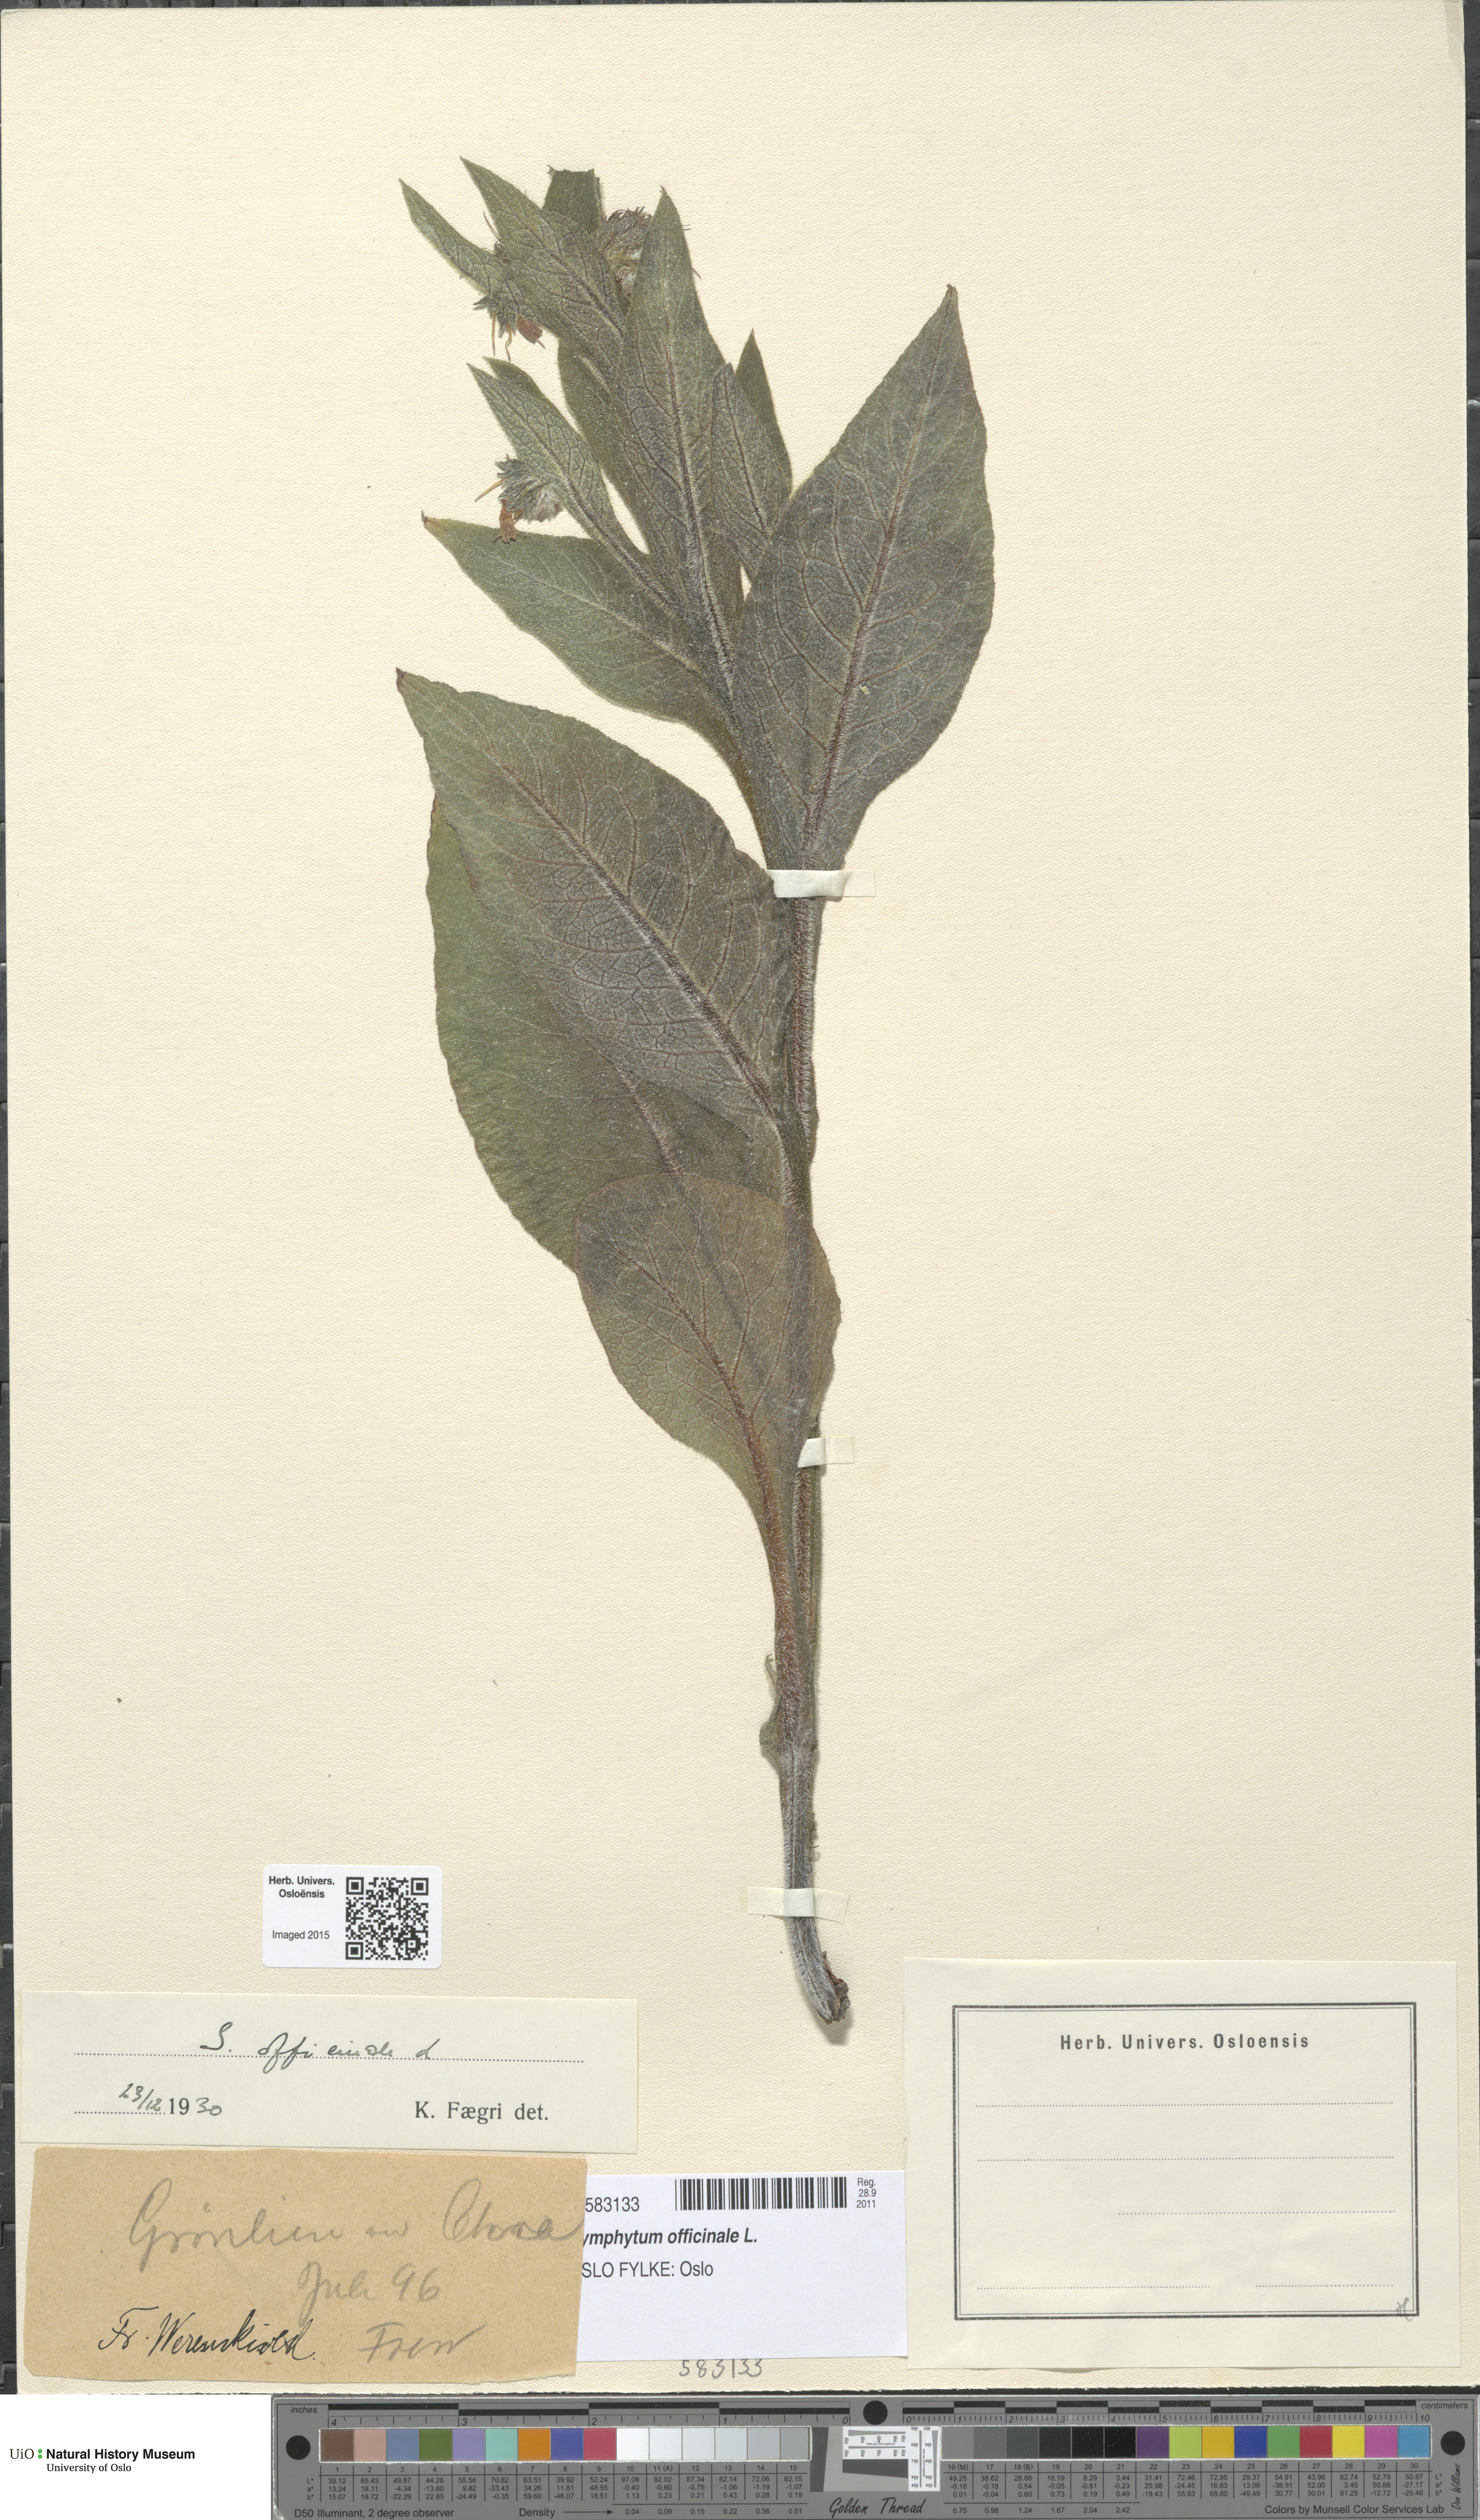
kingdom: Plantae
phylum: Tracheophyta
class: Magnoliopsida
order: Boraginales
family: Boraginaceae
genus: Symphytum
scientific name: Symphytum officinale
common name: Common comfrey
